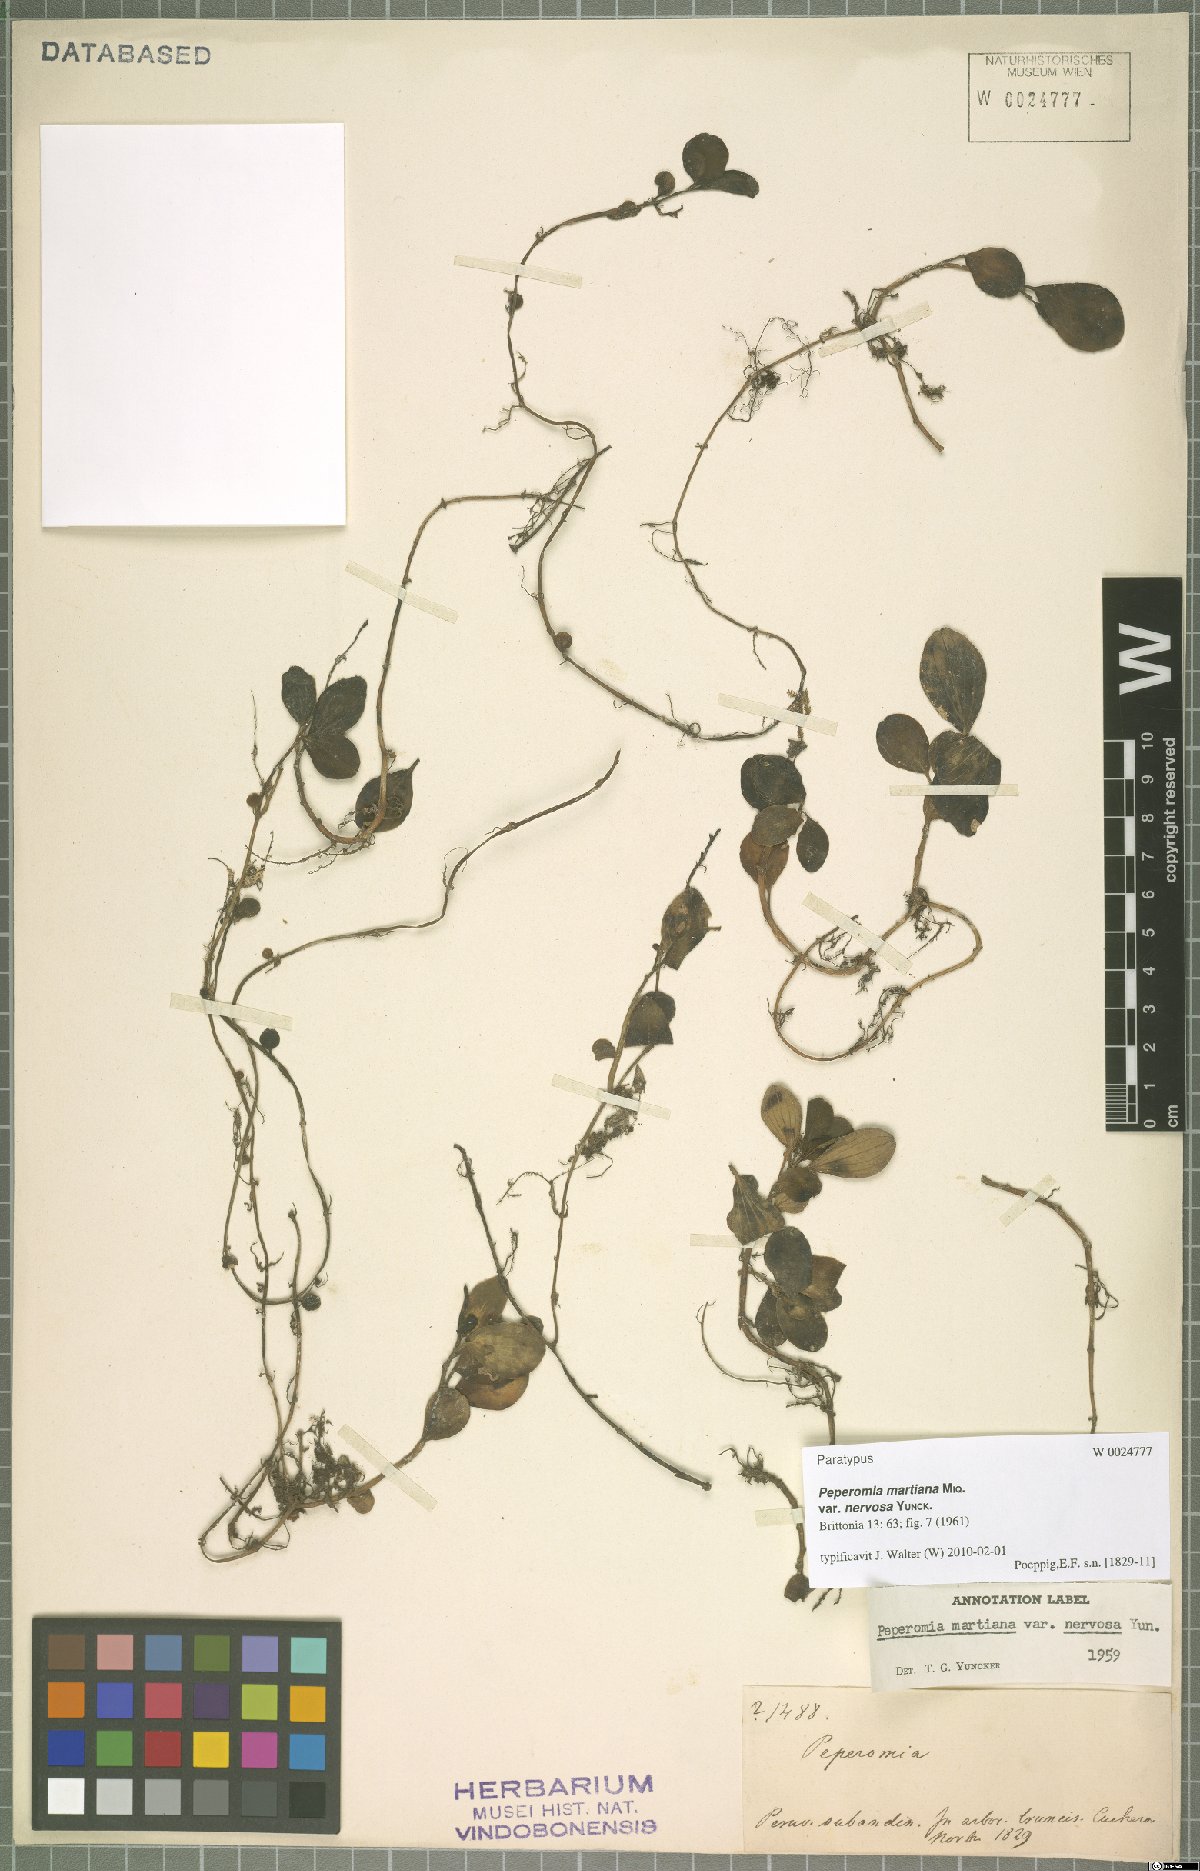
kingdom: Plantae
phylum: Tracheophyta
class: Magnoliopsida
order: Piperales
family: Piperaceae
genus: Peperomia
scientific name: Peperomia martiana
